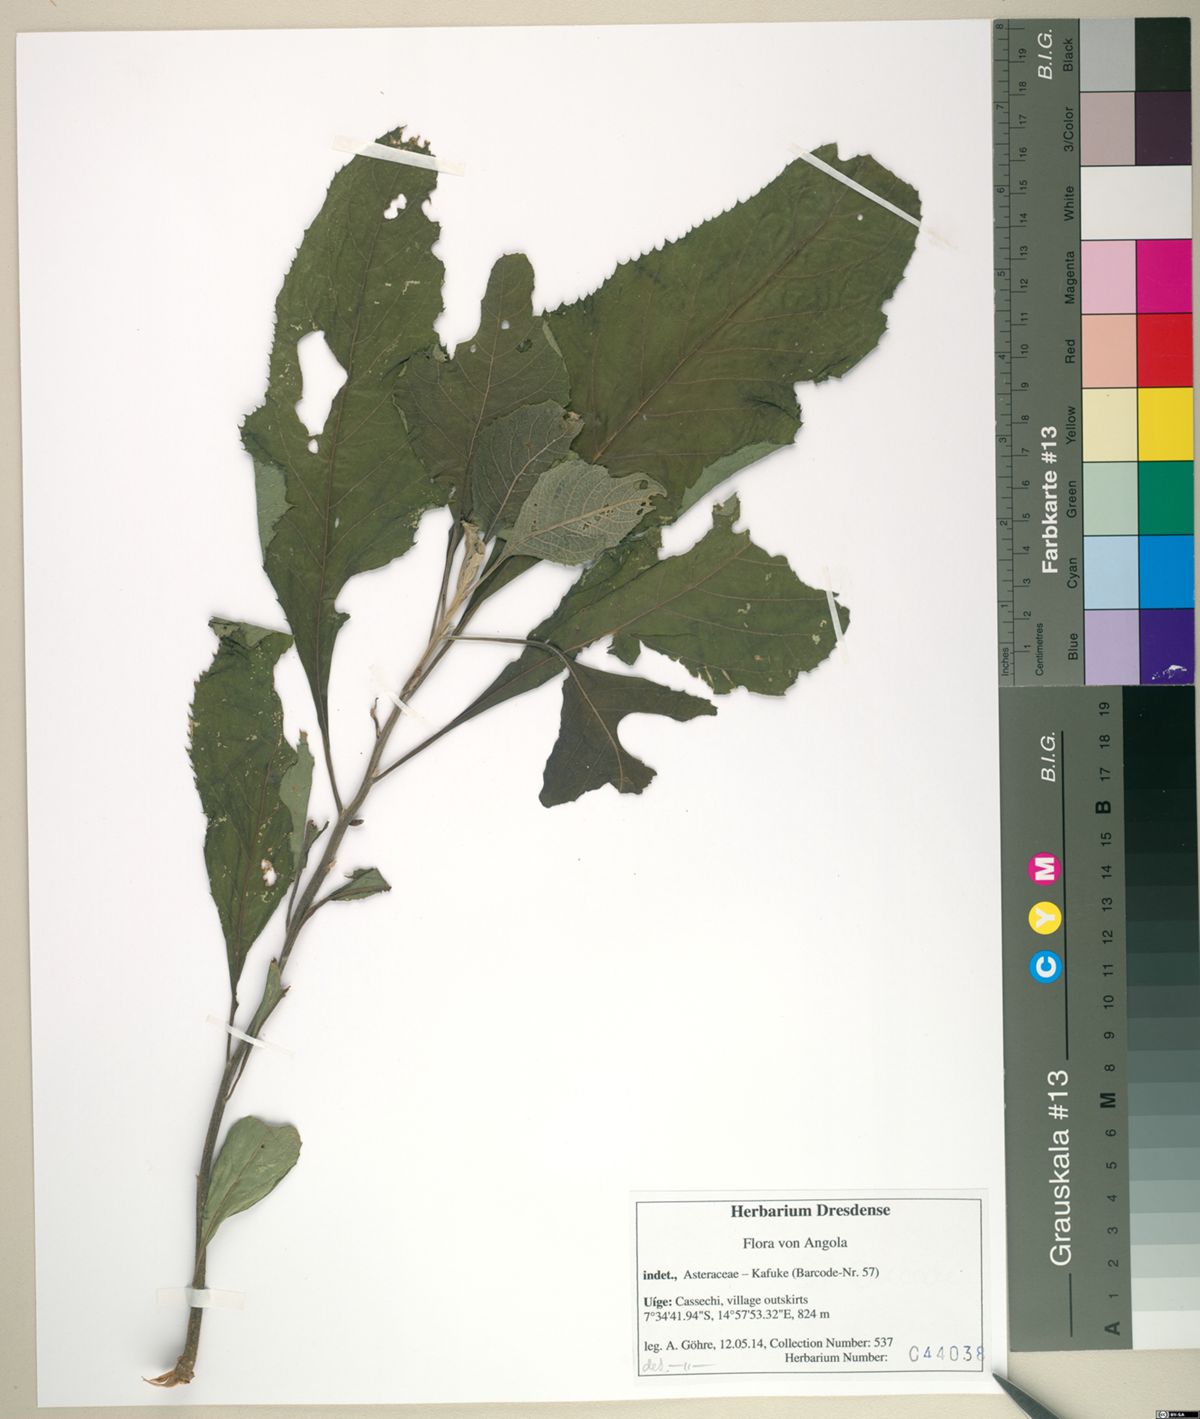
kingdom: Plantae
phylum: Tracheophyta
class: Magnoliopsida
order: Asterales
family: Asteraceae
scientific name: Asteraceae
